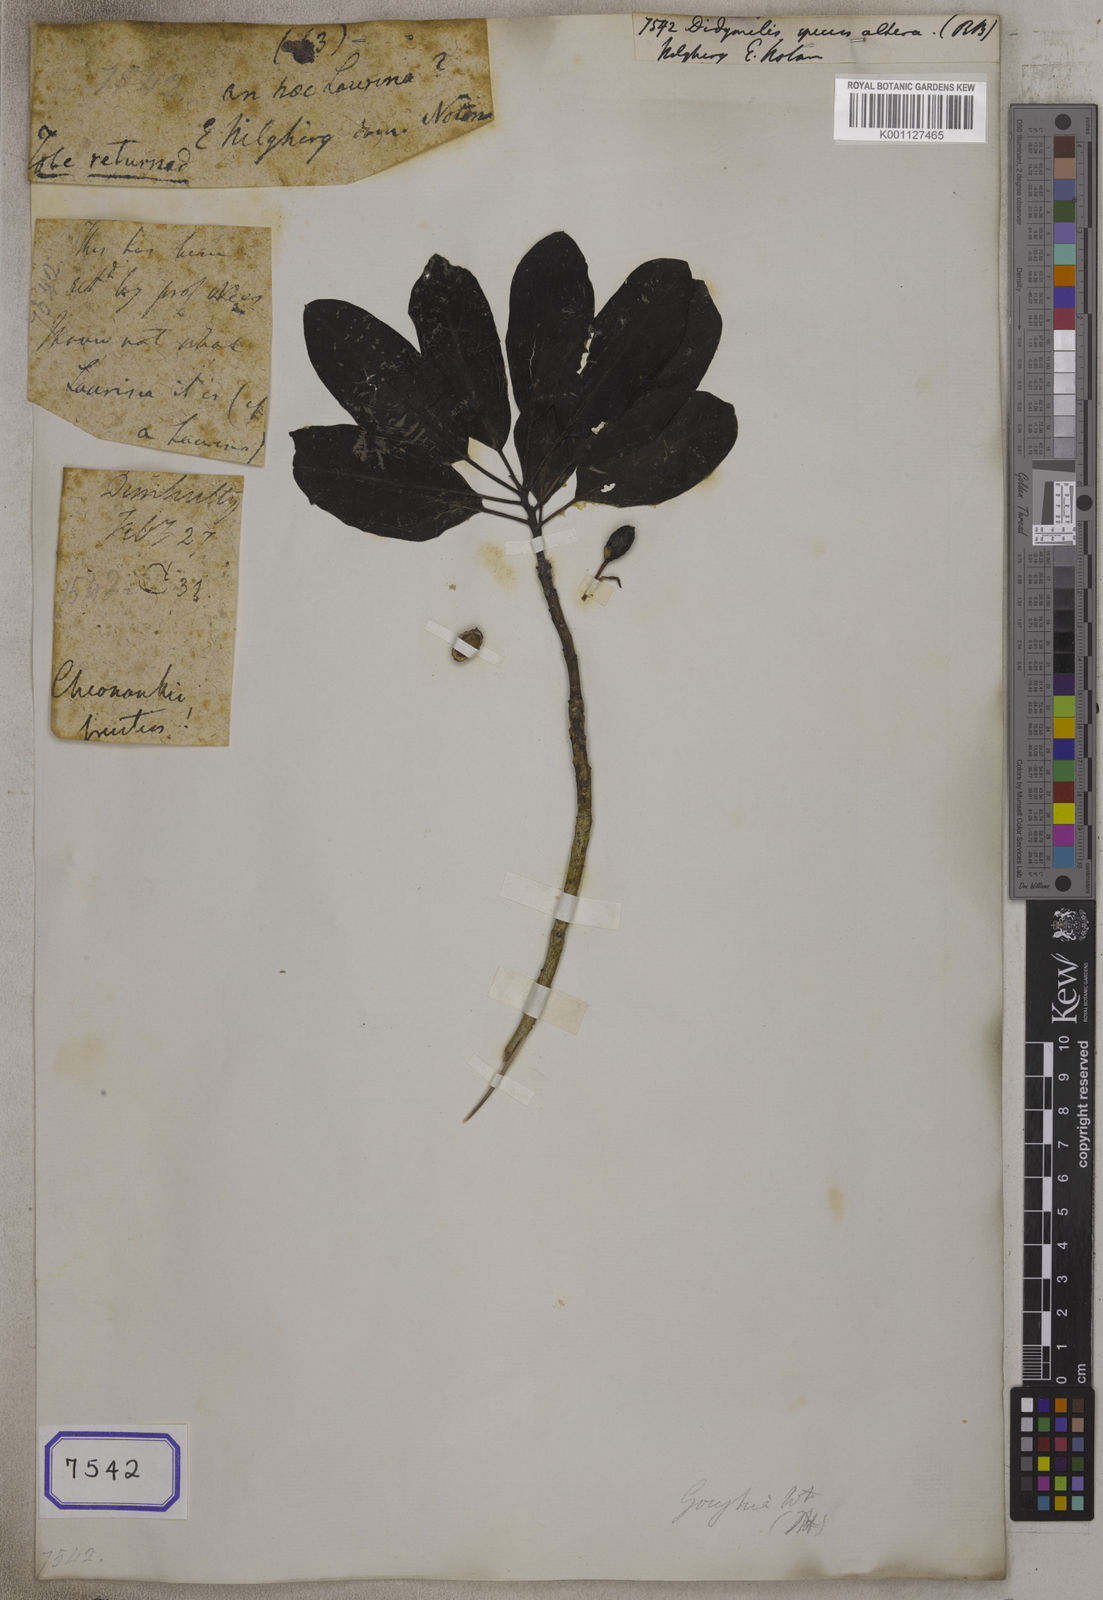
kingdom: Plantae
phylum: Tracheophyta
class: Magnoliopsida
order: Buxales
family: Didymelaceae
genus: Didymeles
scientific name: Didymeles
